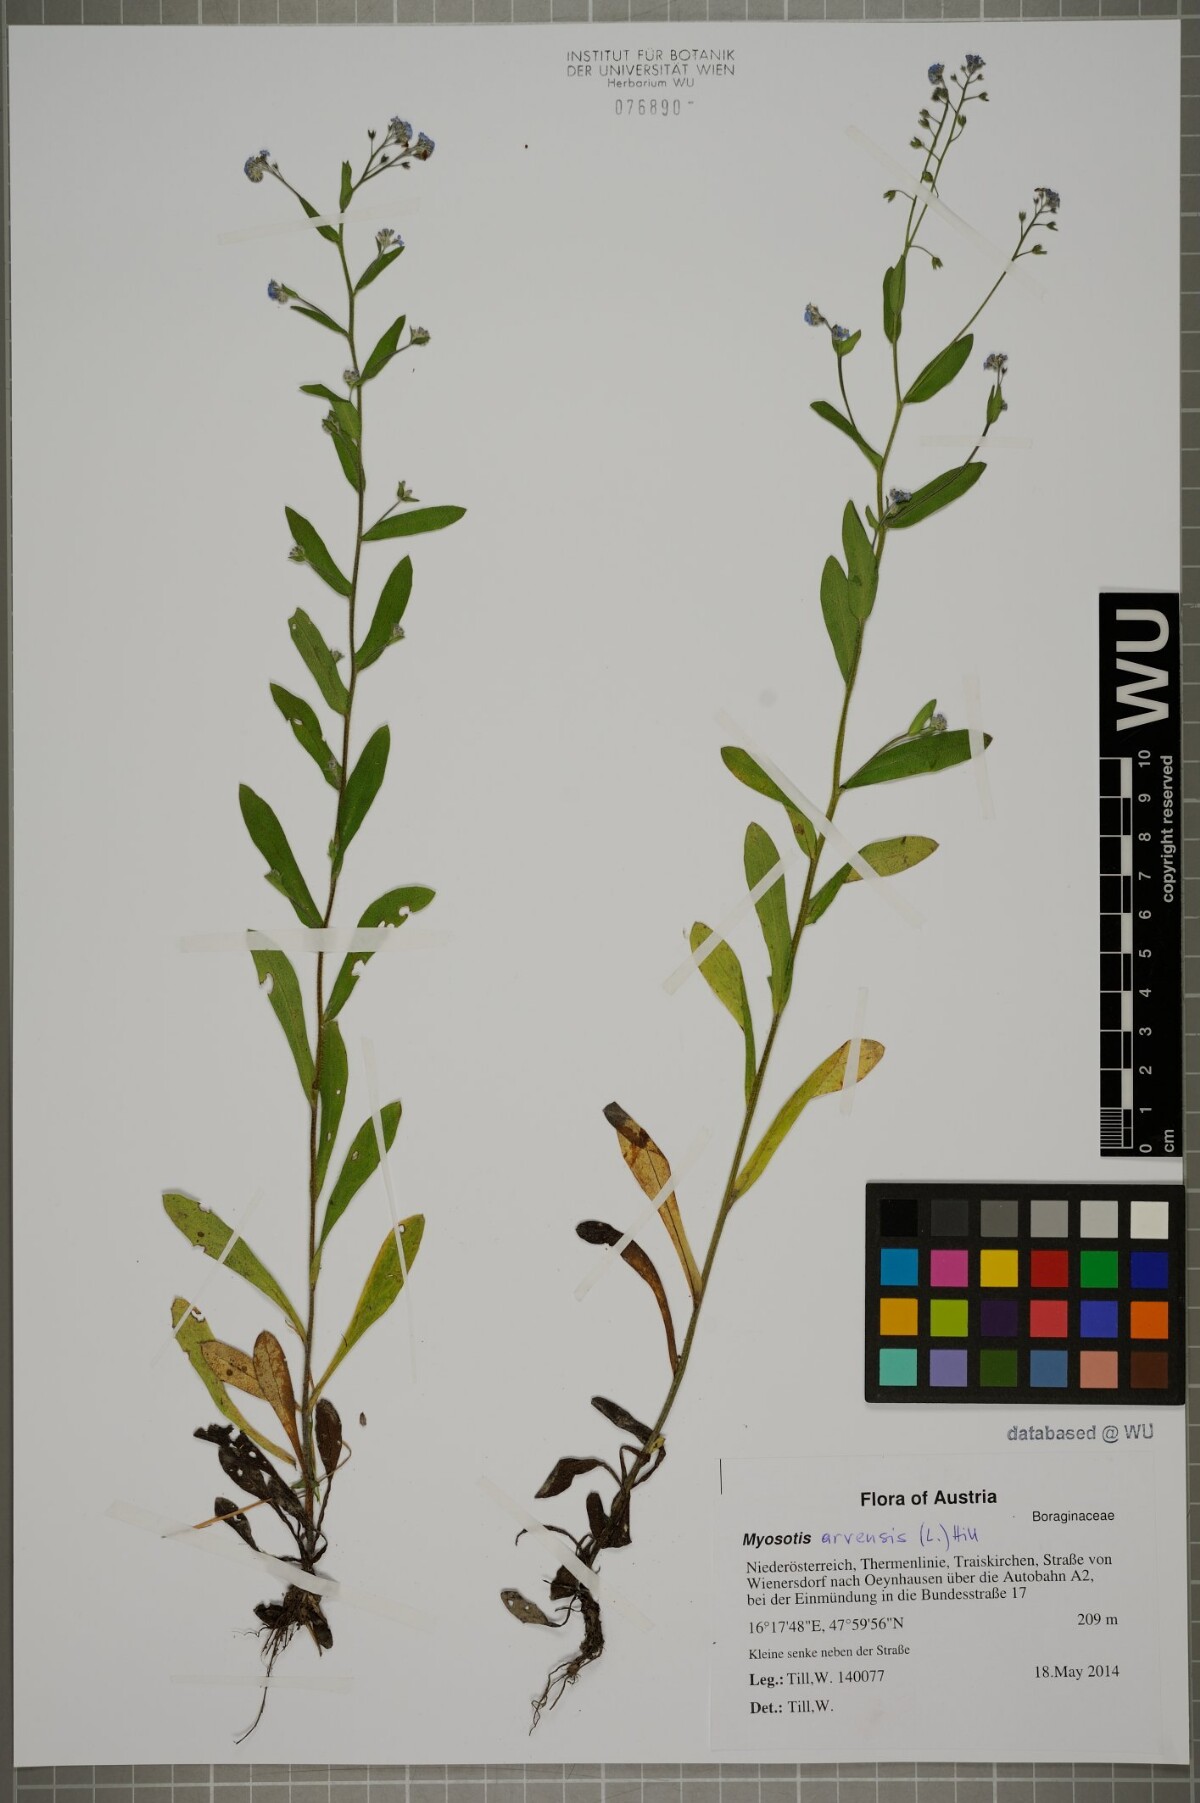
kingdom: Plantae
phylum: Tracheophyta
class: Magnoliopsida
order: Boraginales
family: Boraginaceae
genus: Myosotis
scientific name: Myosotis arvensis
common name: Field forget-me-not
